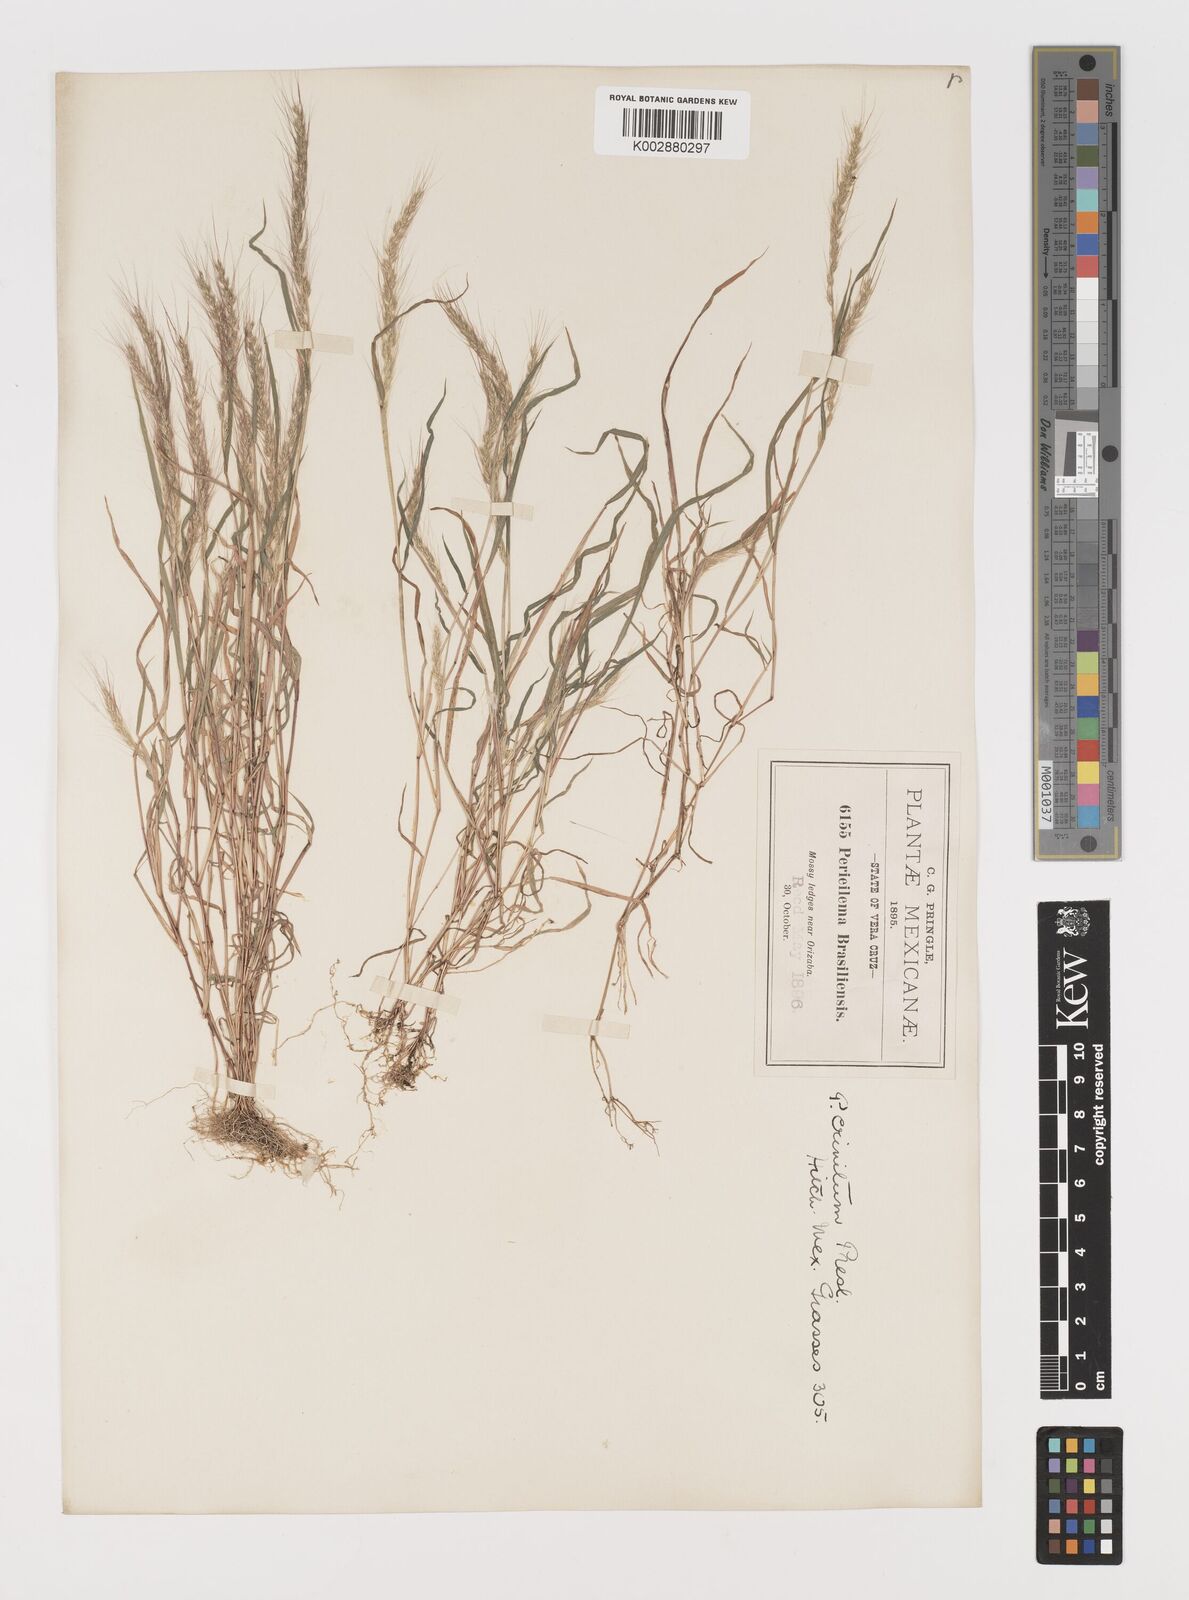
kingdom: Plantae
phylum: Tracheophyta
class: Liliopsida
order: Poales
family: Poaceae
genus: Muhlenbergia
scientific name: Muhlenbergia pereilema
